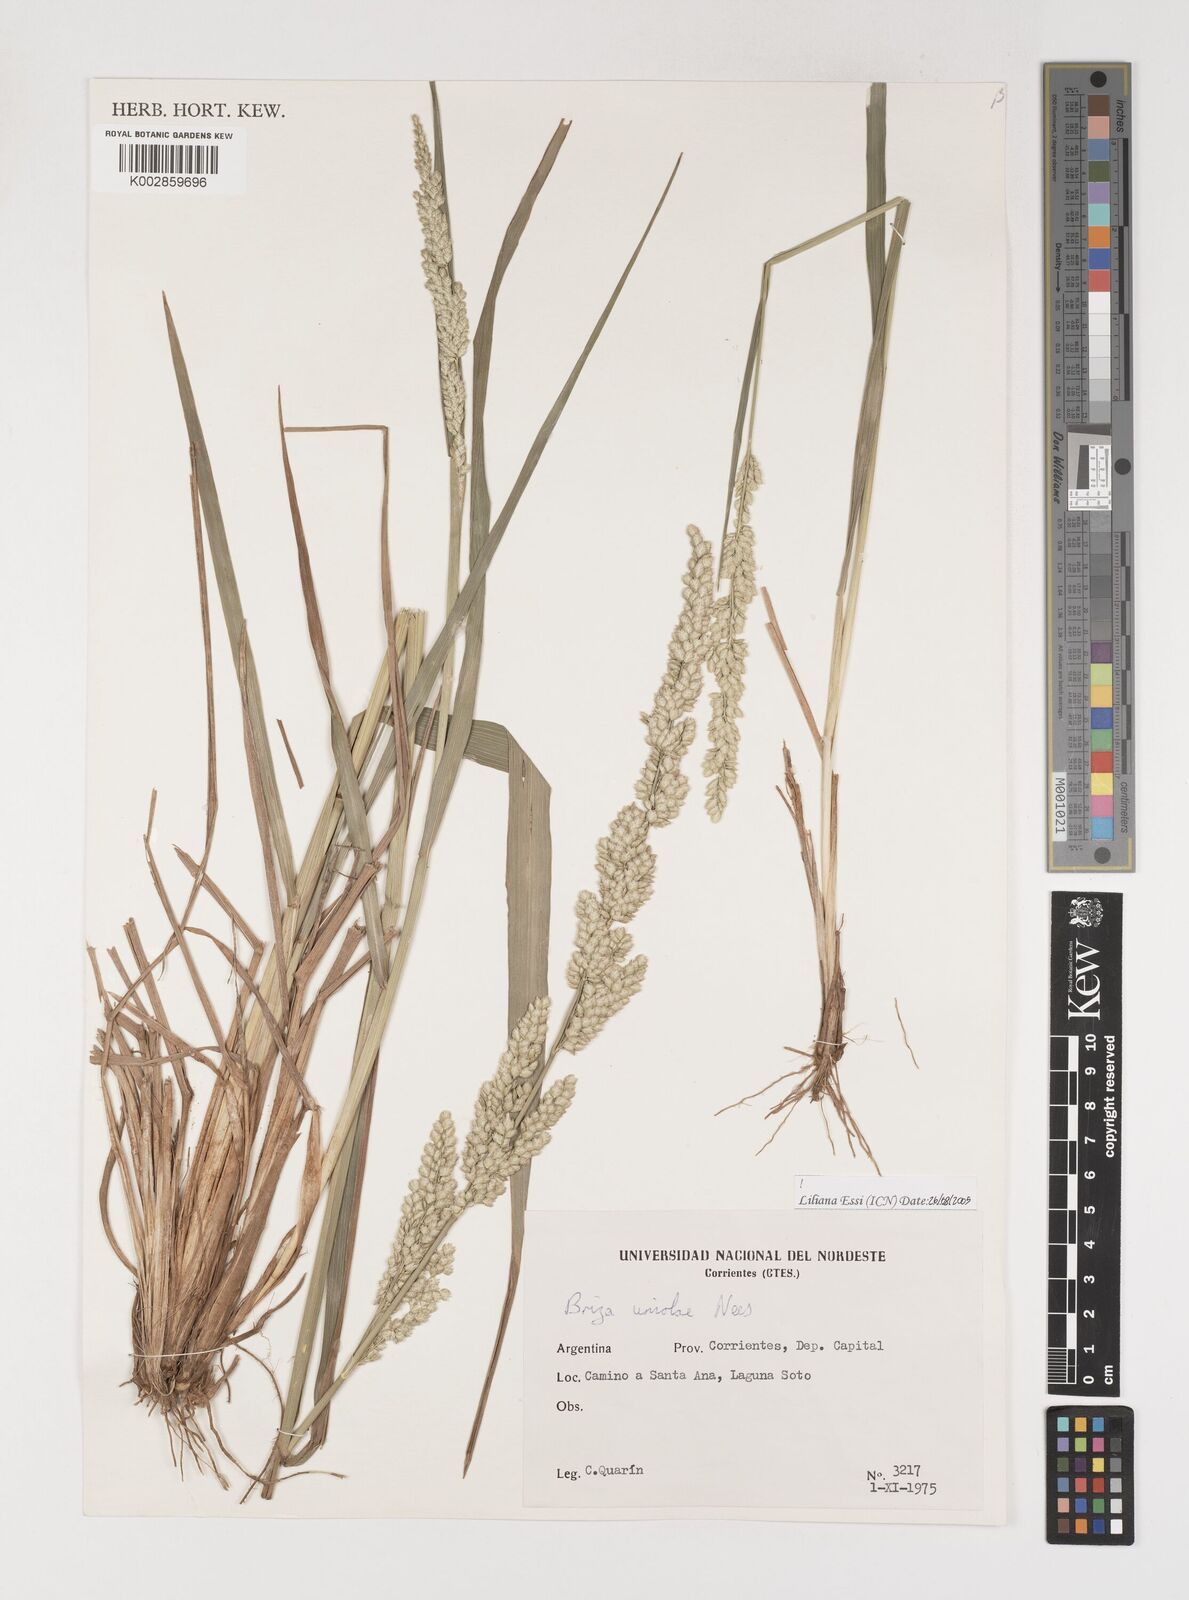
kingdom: Plantae
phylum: Tracheophyta
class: Liliopsida
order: Poales
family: Poaceae
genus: Poidium
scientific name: Poidium uniolae
